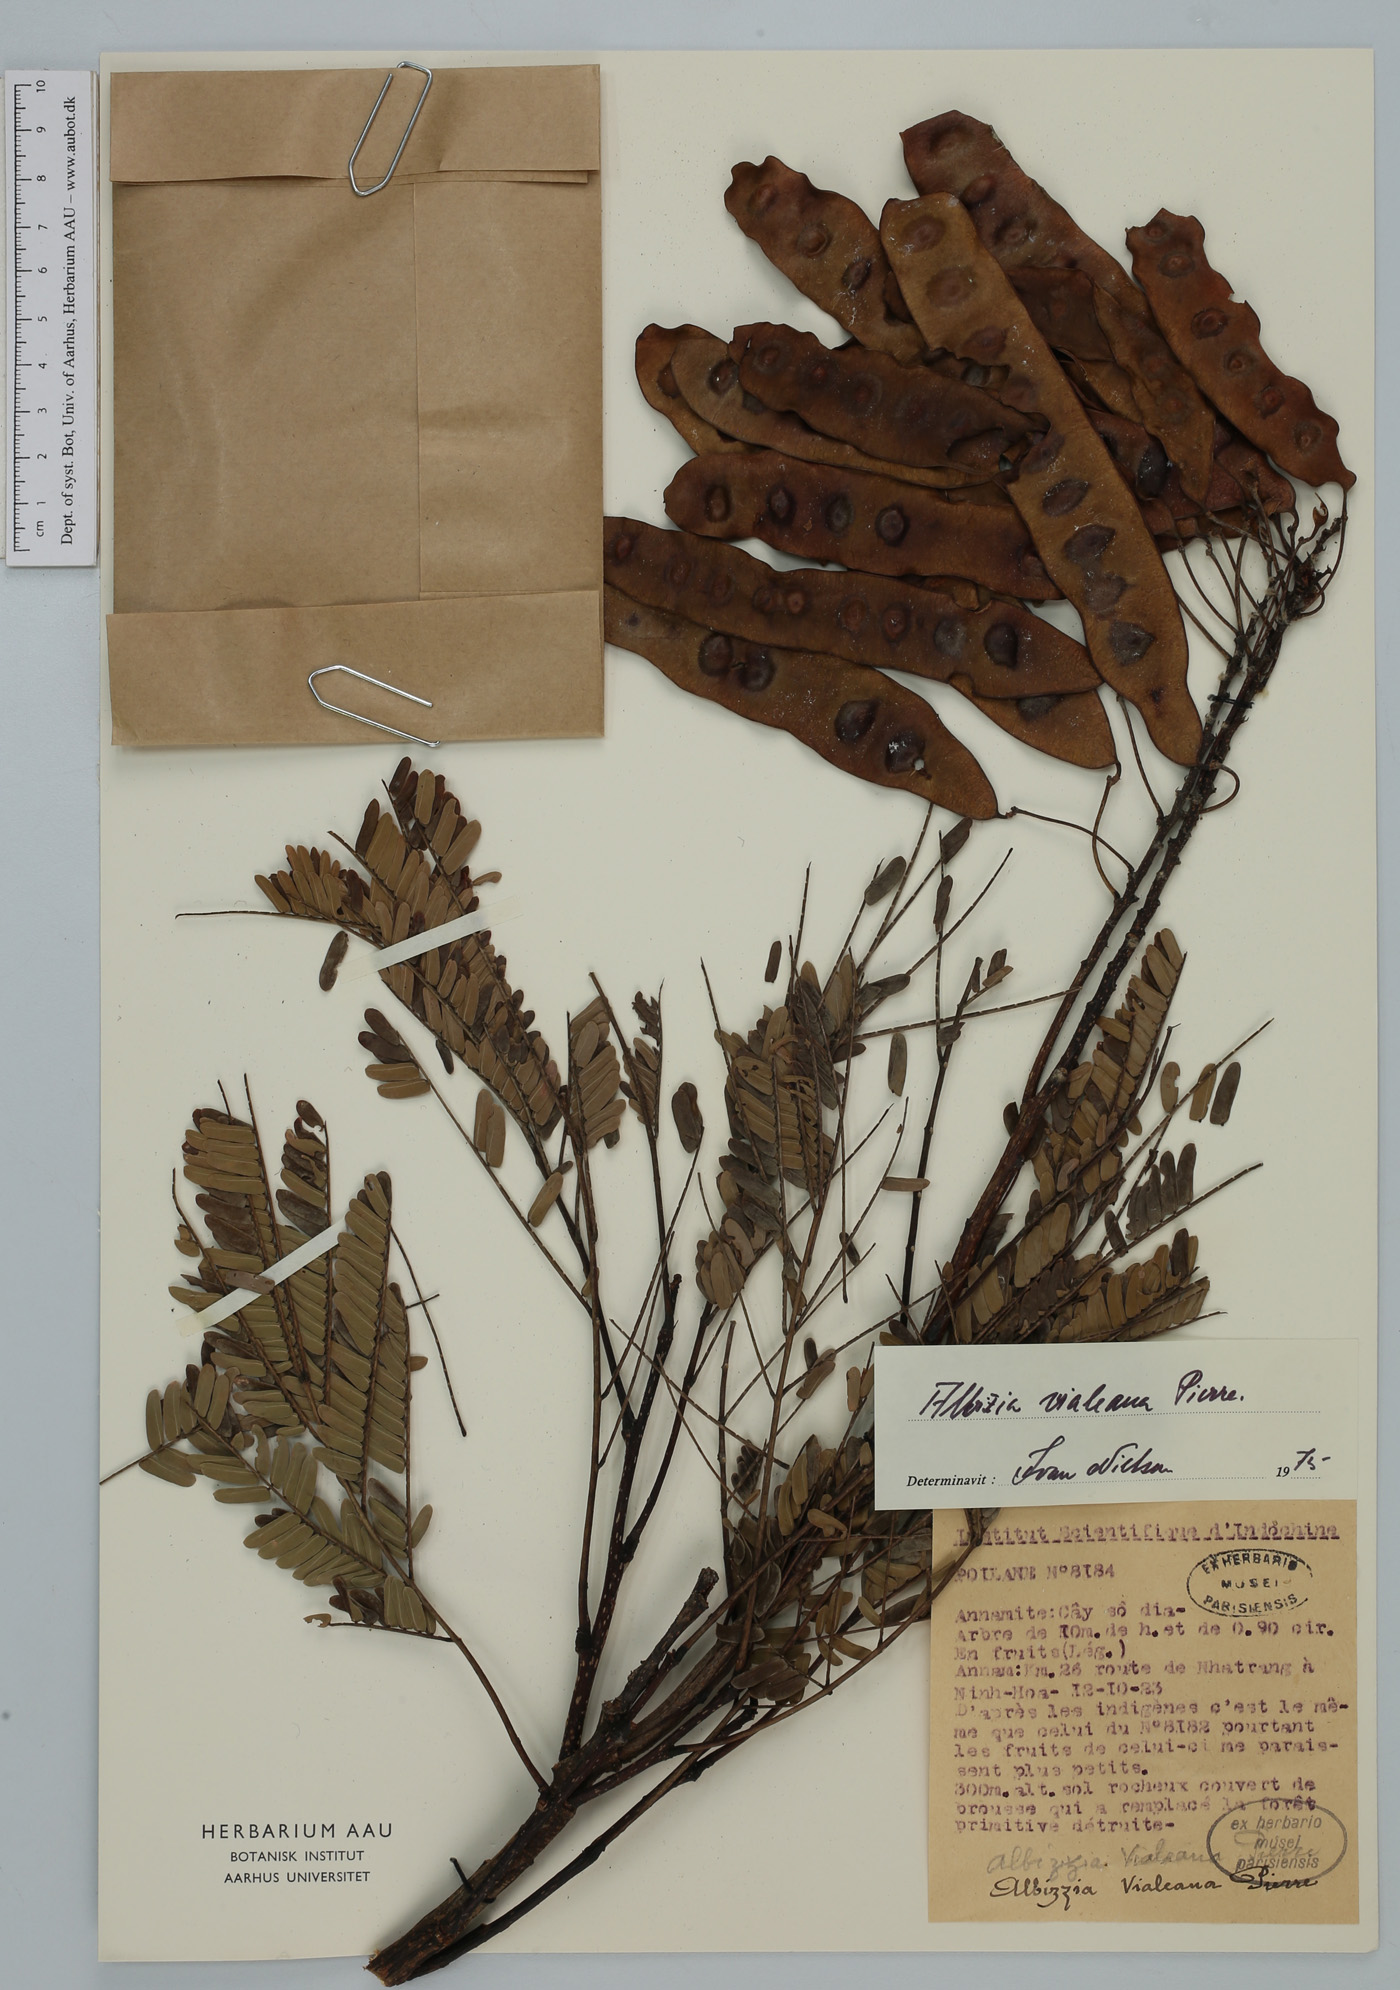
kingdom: Plantae
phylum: Tracheophyta
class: Magnoliopsida
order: Fabales
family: Fabaceae
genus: Albizia
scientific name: Albizia vialeana
